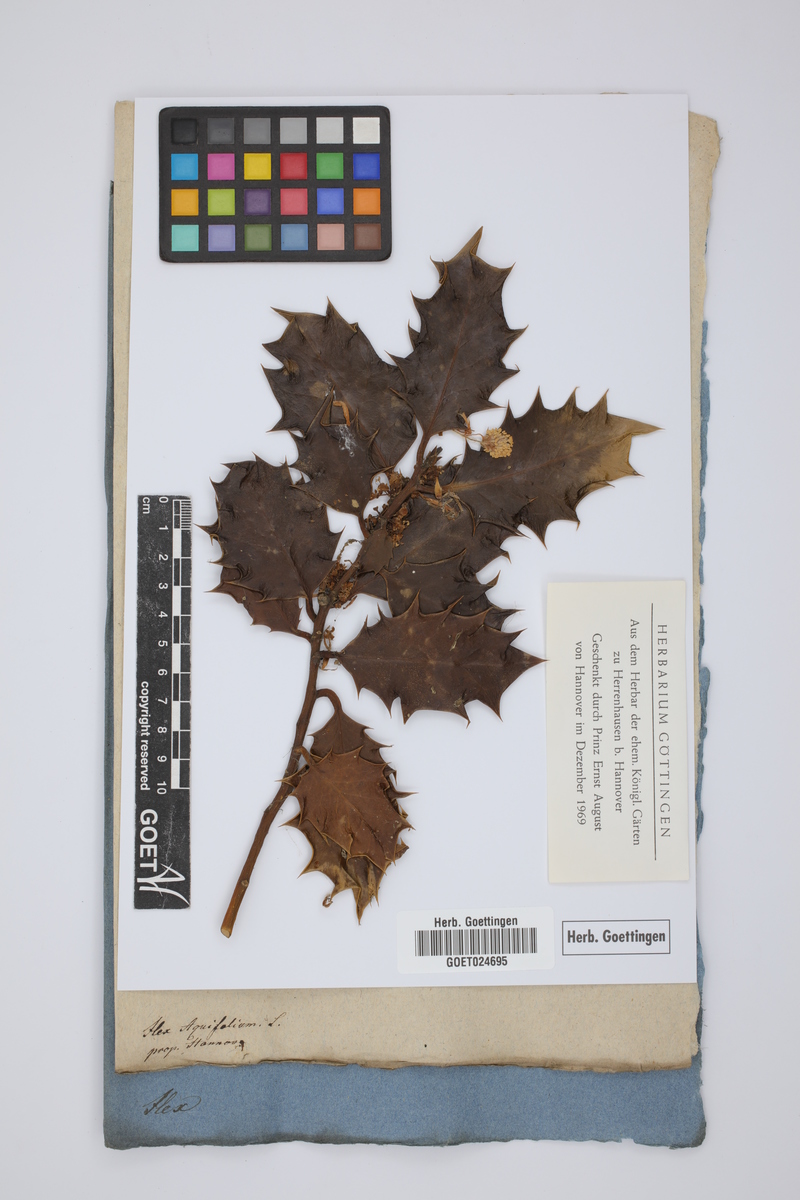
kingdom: Plantae
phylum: Tracheophyta
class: Magnoliopsida
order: Aquifoliales
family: Aquifoliaceae
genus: Ilex
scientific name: Ilex aquifolium
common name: English holly
